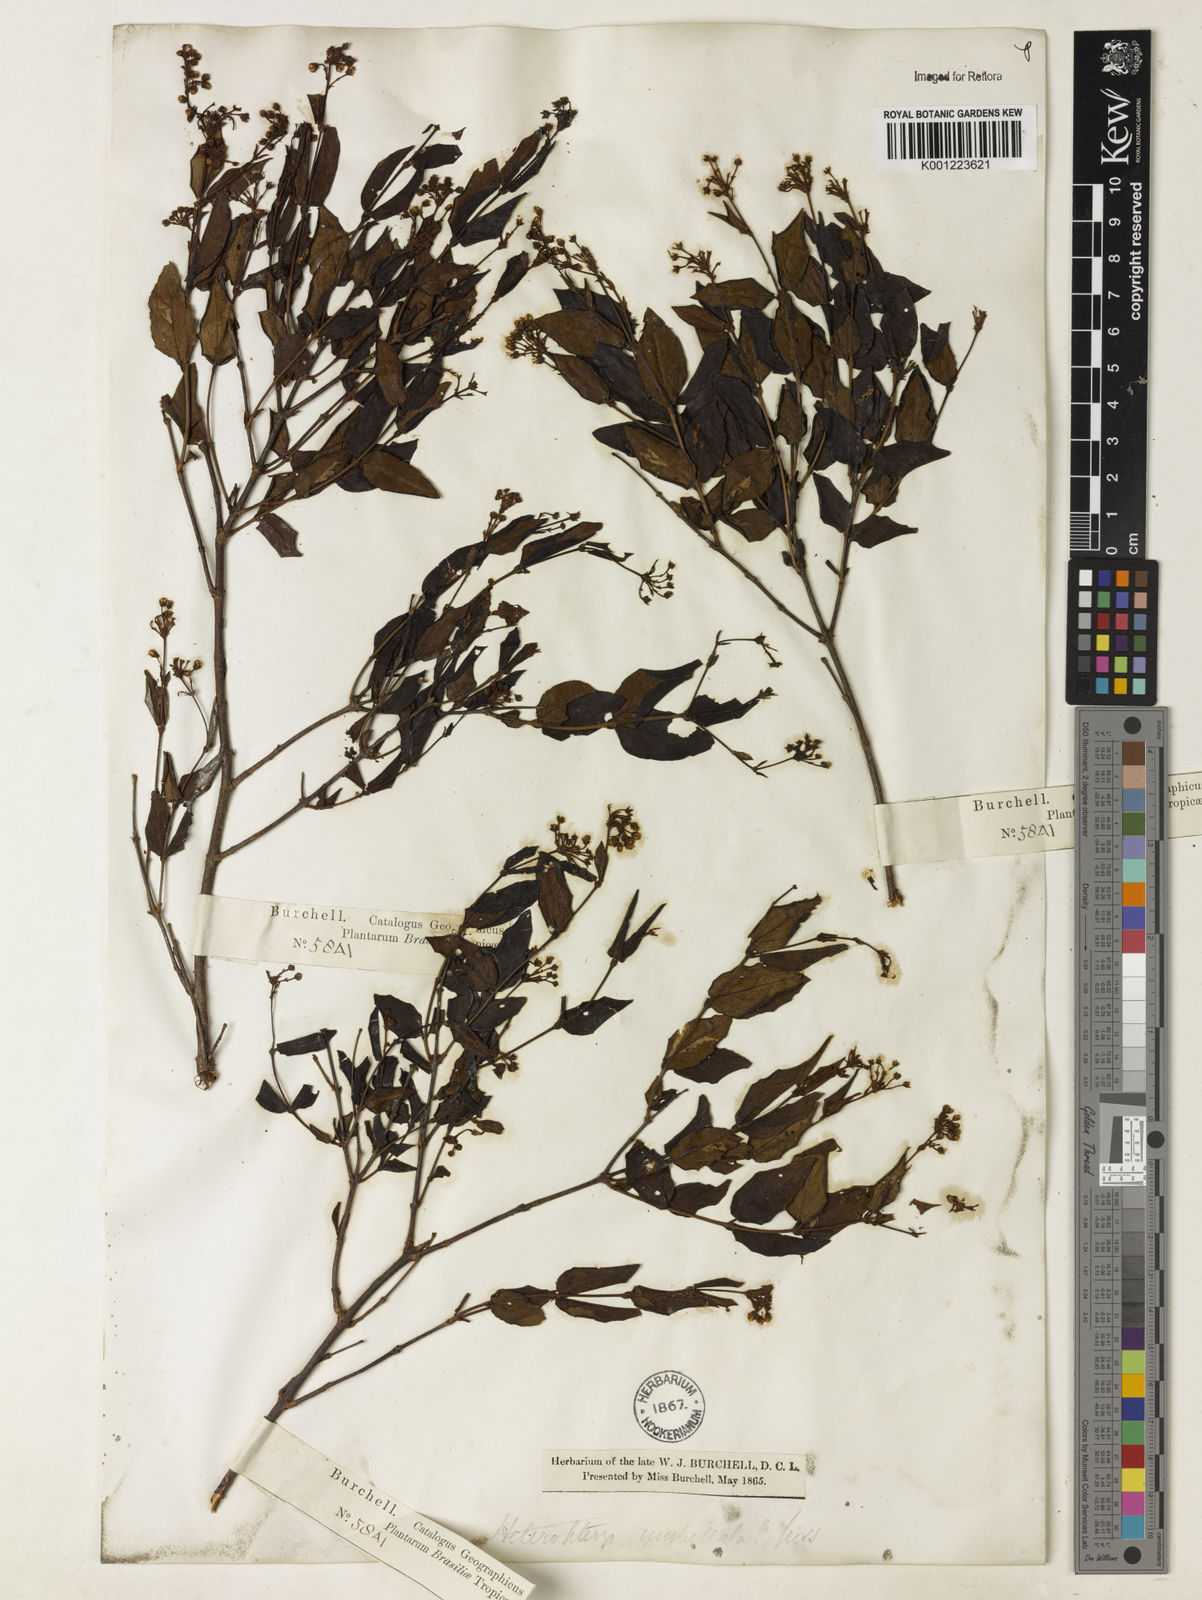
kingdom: Plantae
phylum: Tracheophyta
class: Magnoliopsida
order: Malpighiales
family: Malpighiaceae
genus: Heteropterys
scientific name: Heteropterys umbellata
